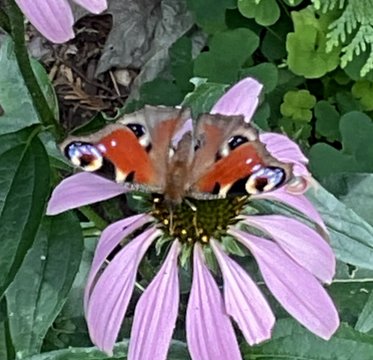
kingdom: Animalia
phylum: Arthropoda
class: Insecta
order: Lepidoptera
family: Nymphalidae
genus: Aglais
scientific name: Aglais io
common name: European Peacock
